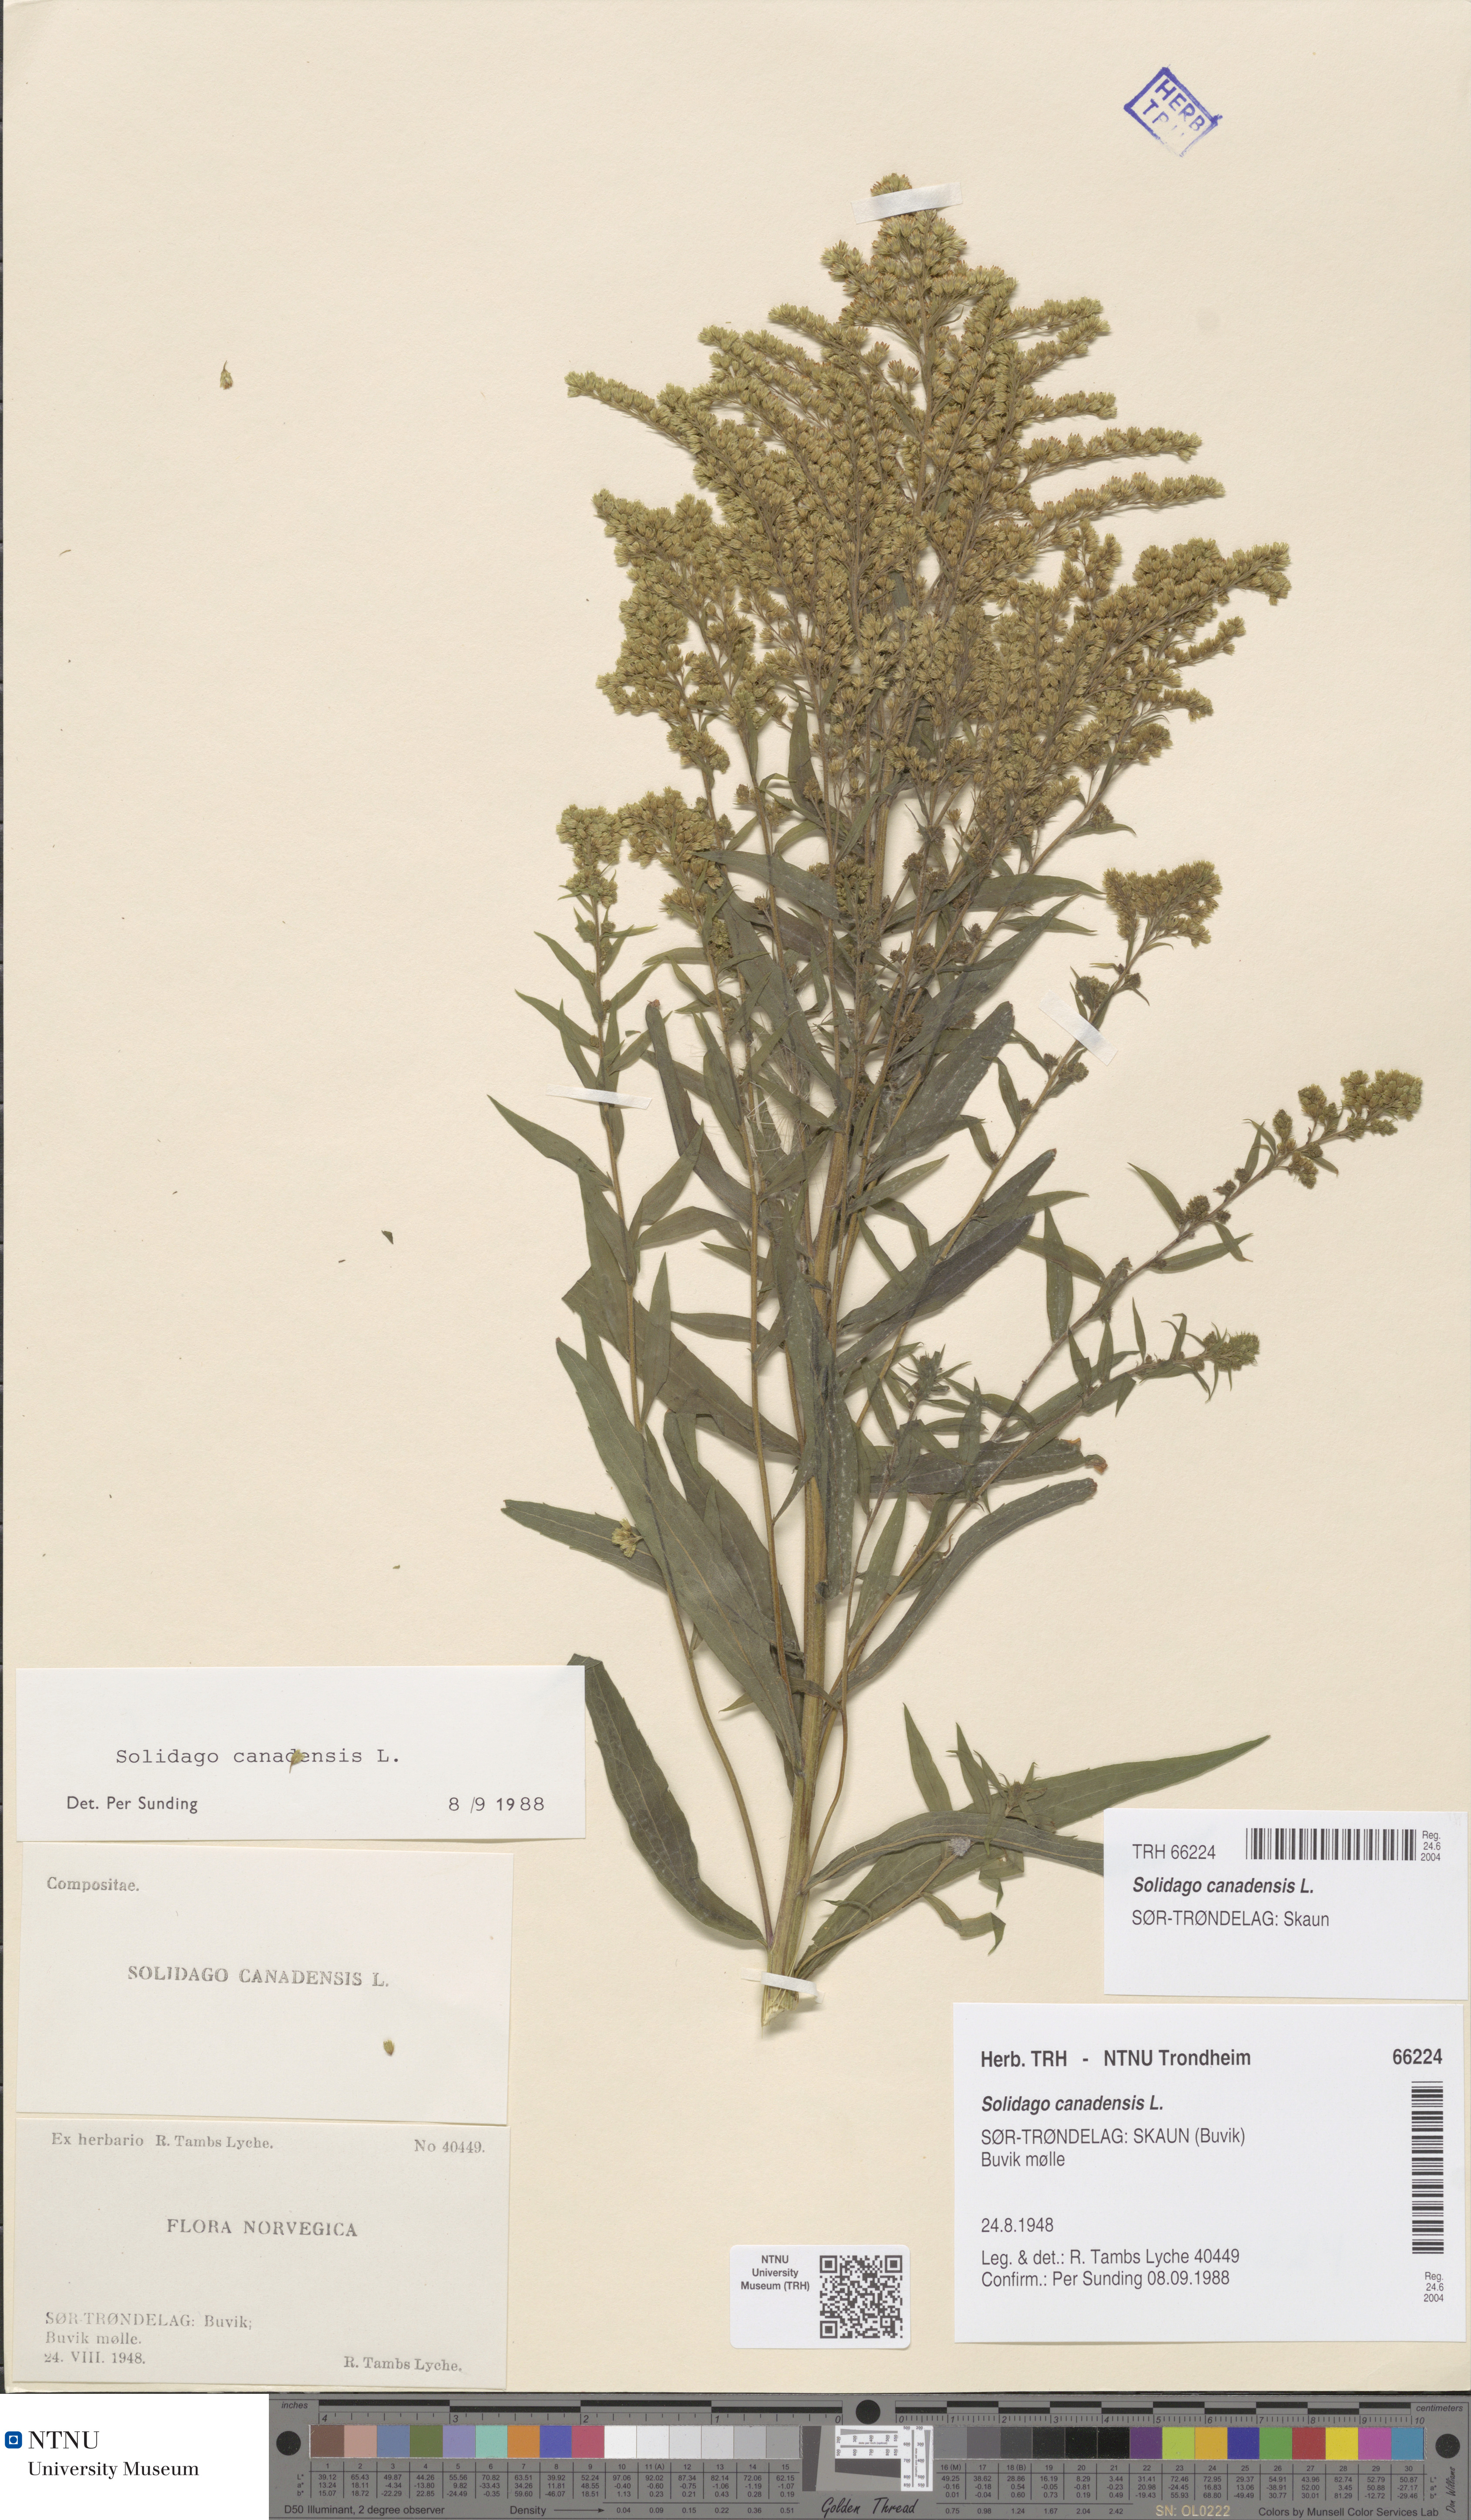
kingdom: Plantae
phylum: Tracheophyta
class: Magnoliopsida
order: Asterales
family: Asteraceae
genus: Solidago
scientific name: Solidago canadensis
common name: Canada goldenrod
